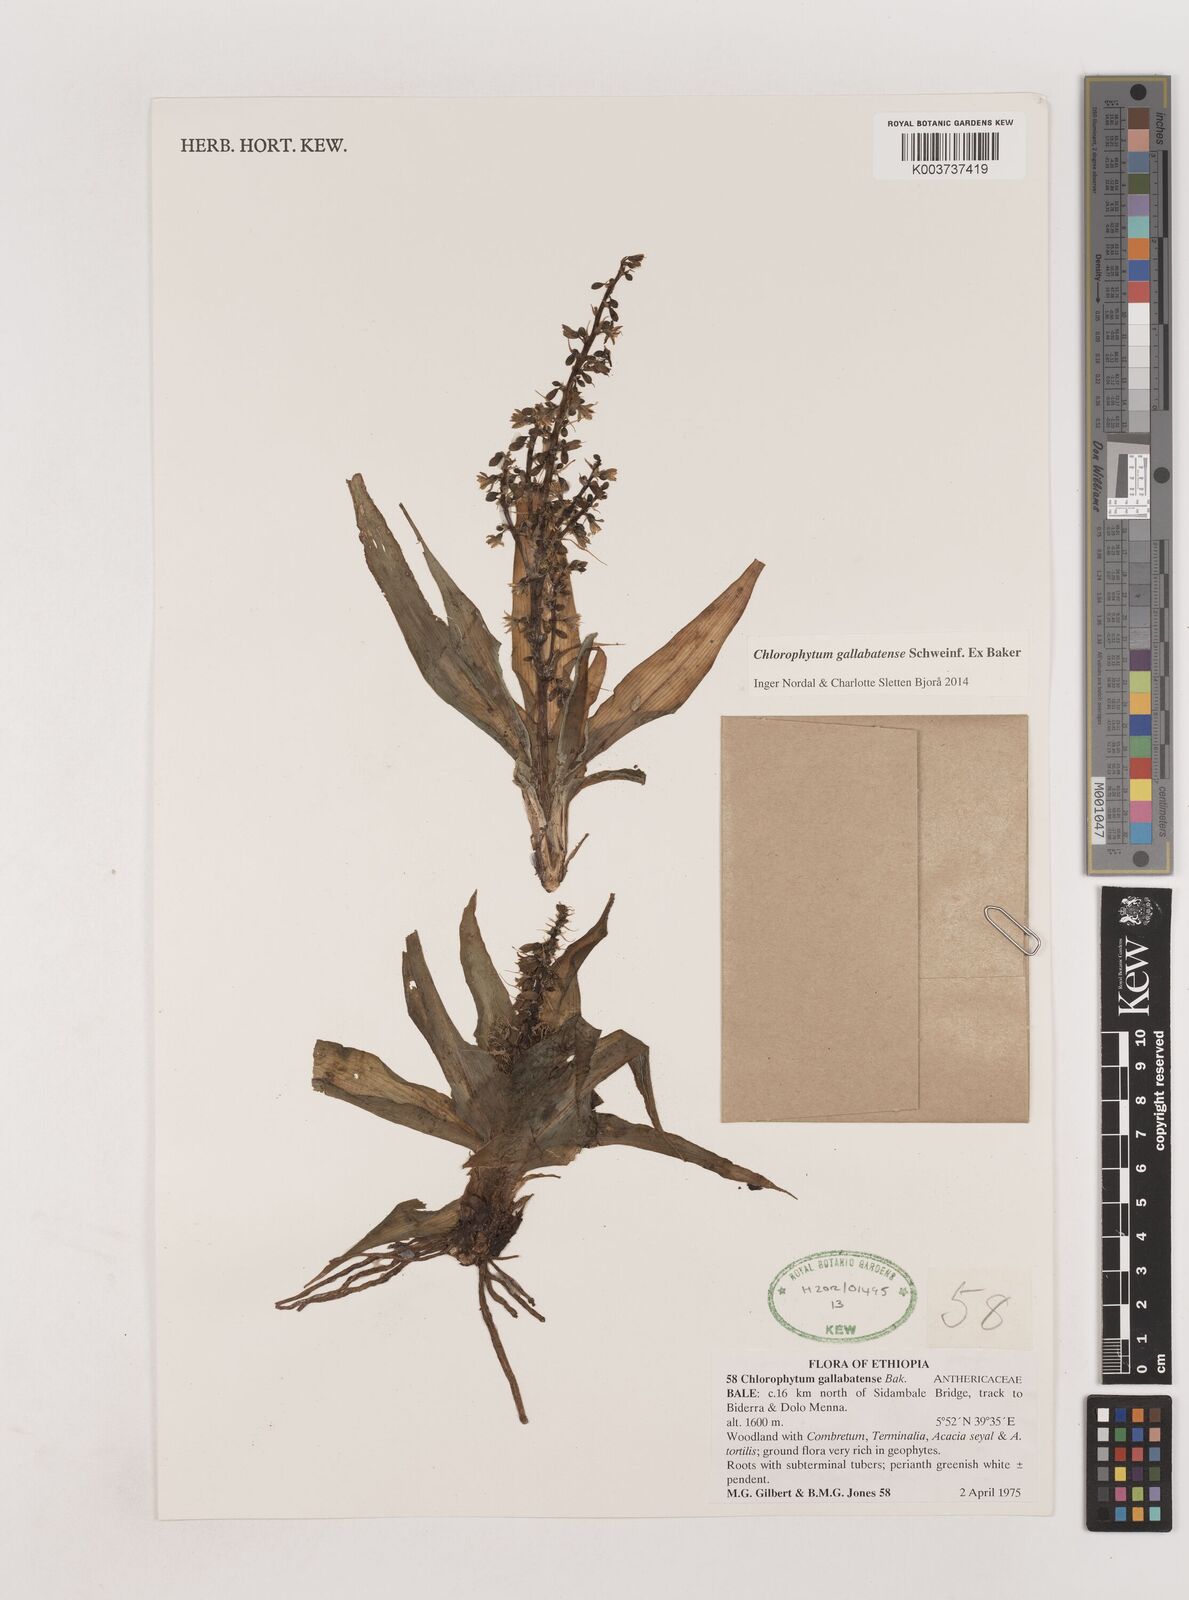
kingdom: Plantae
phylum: Tracheophyta
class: Liliopsida
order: Asparagales
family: Asparagaceae
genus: Chlorophytum
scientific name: Chlorophytum gallabatense
